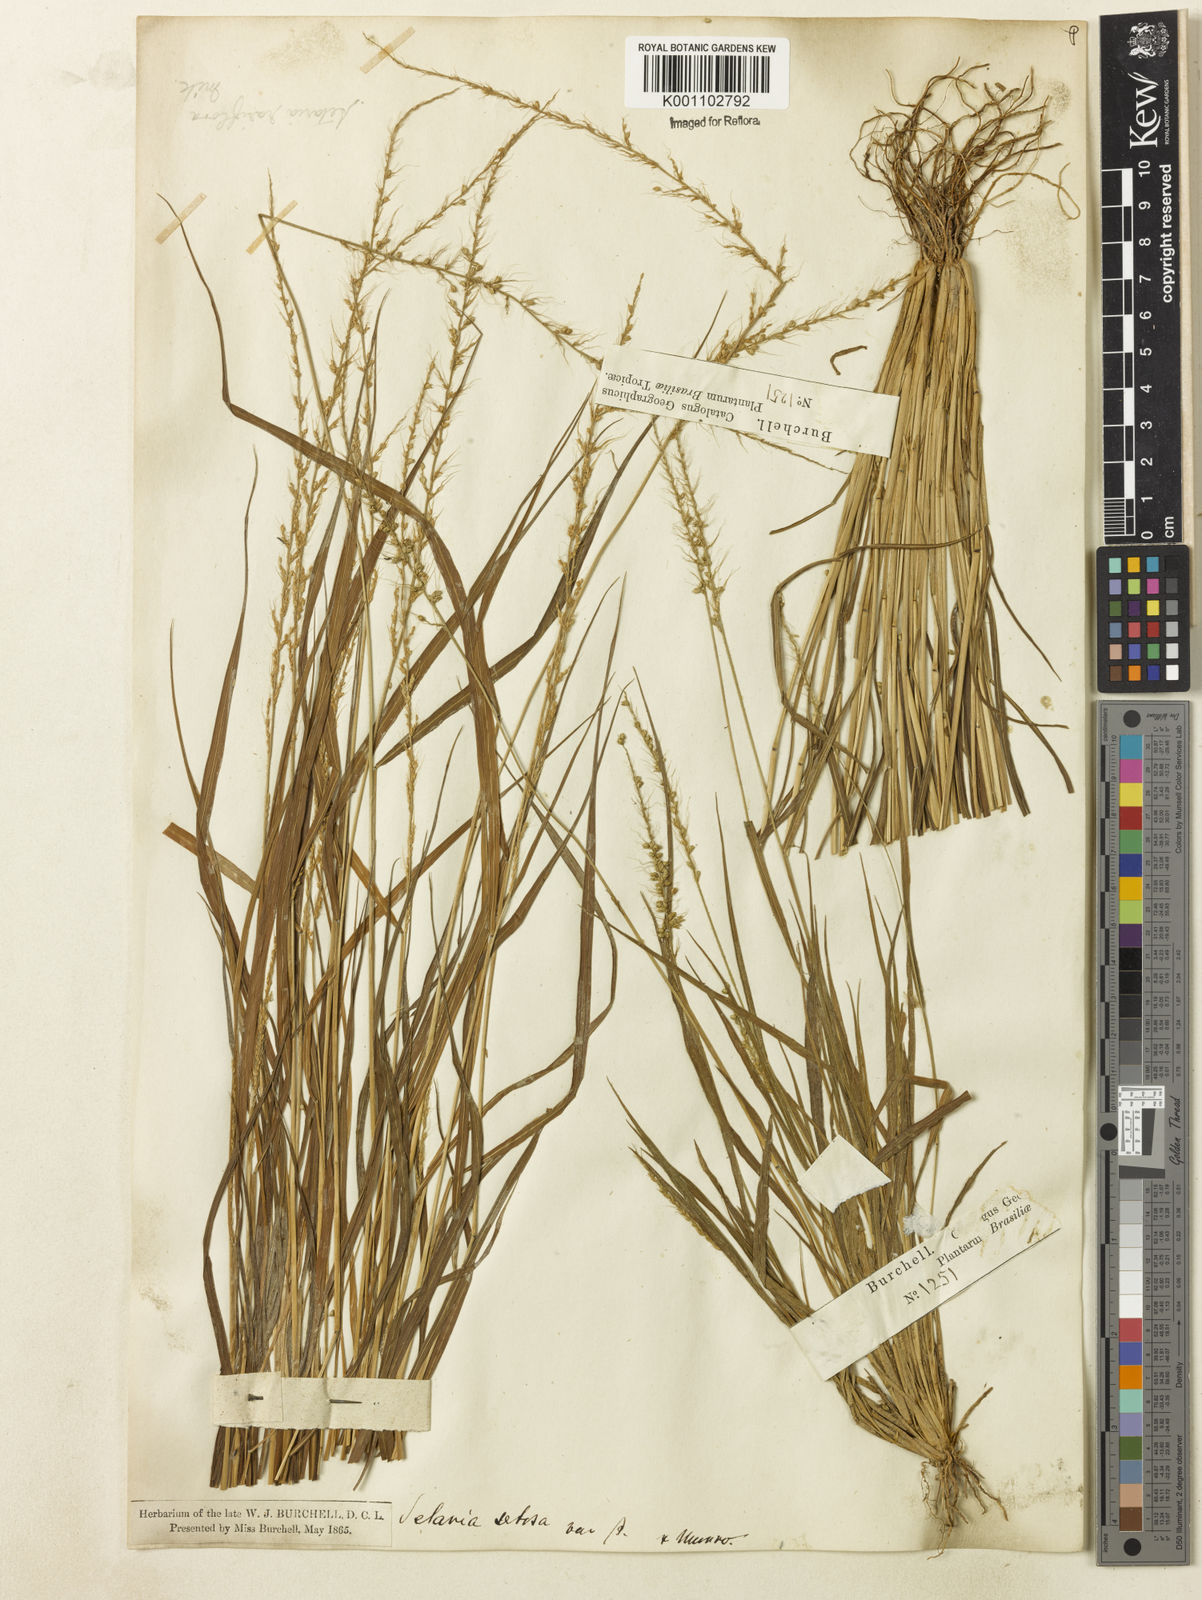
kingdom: Plantae
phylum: Tracheophyta
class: Liliopsida
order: Poales
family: Poaceae
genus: Setaria
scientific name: Setaria setosa
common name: West indies bristle grass
